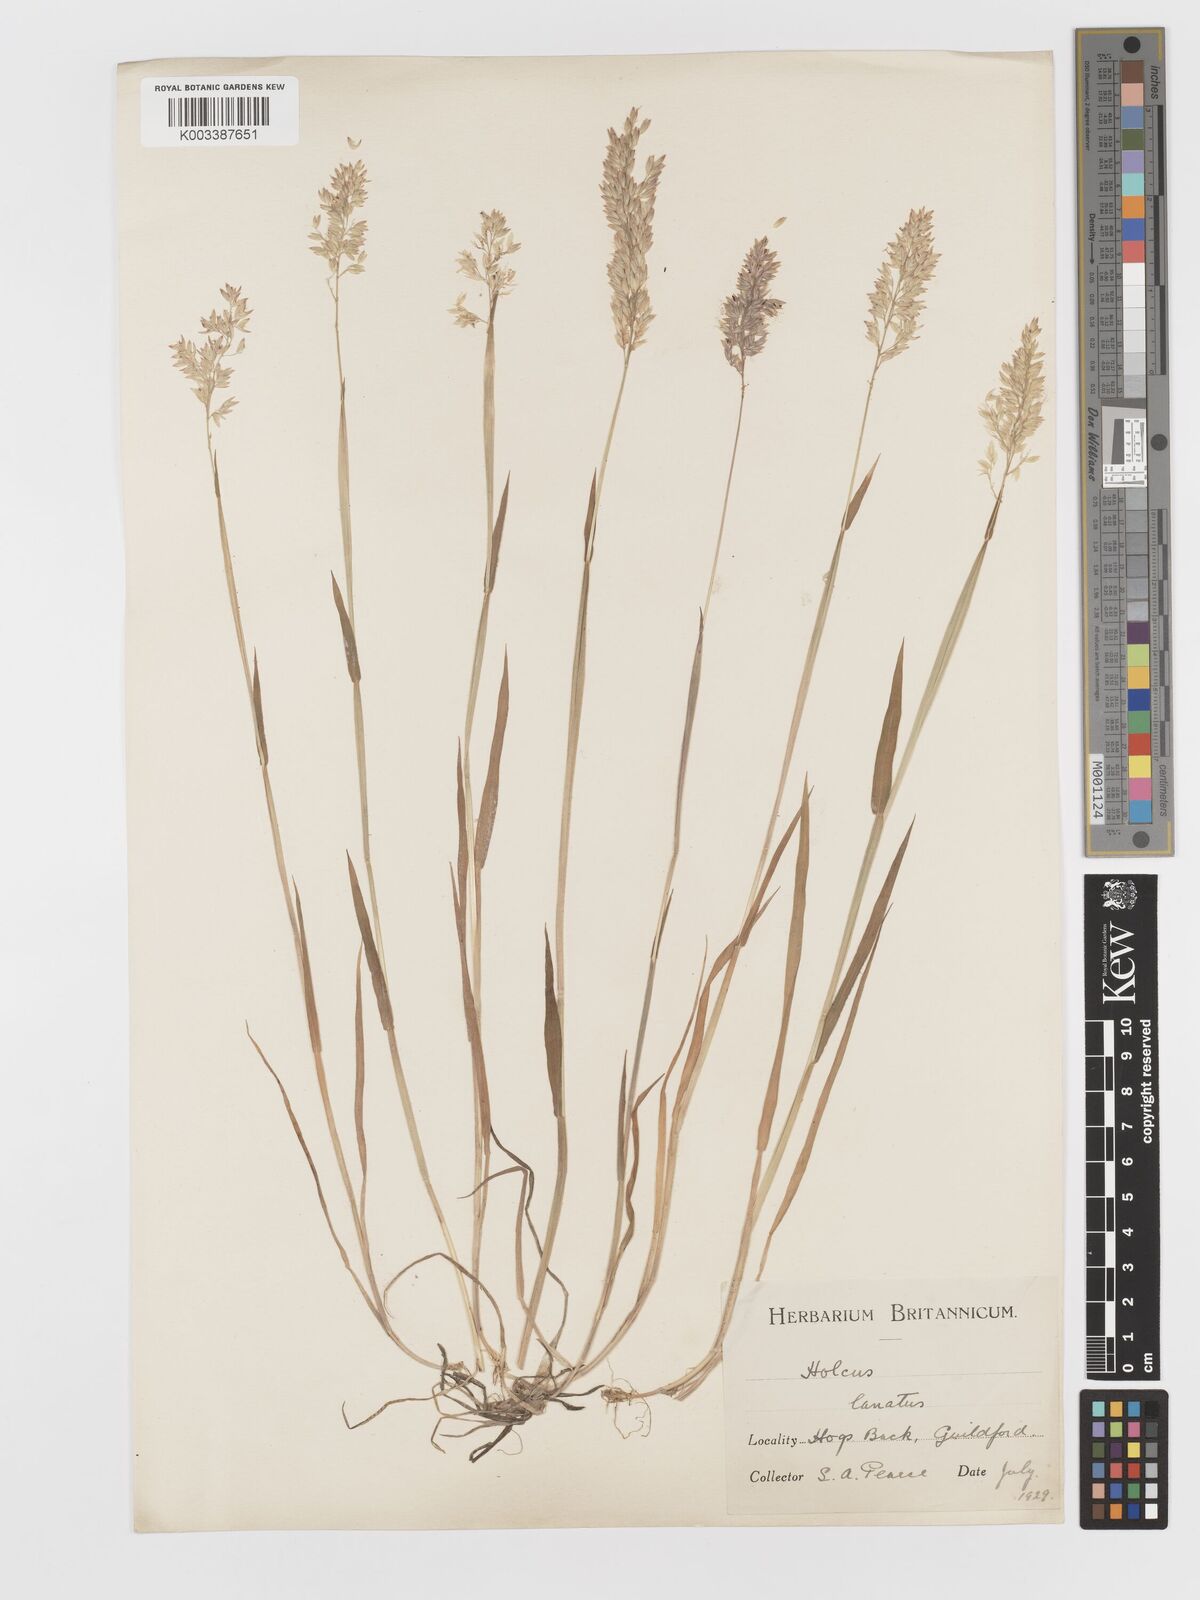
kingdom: Plantae
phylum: Tracheophyta
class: Liliopsida
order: Poales
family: Poaceae
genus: Holcus
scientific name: Holcus lanatus
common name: Yorkshire-fog
